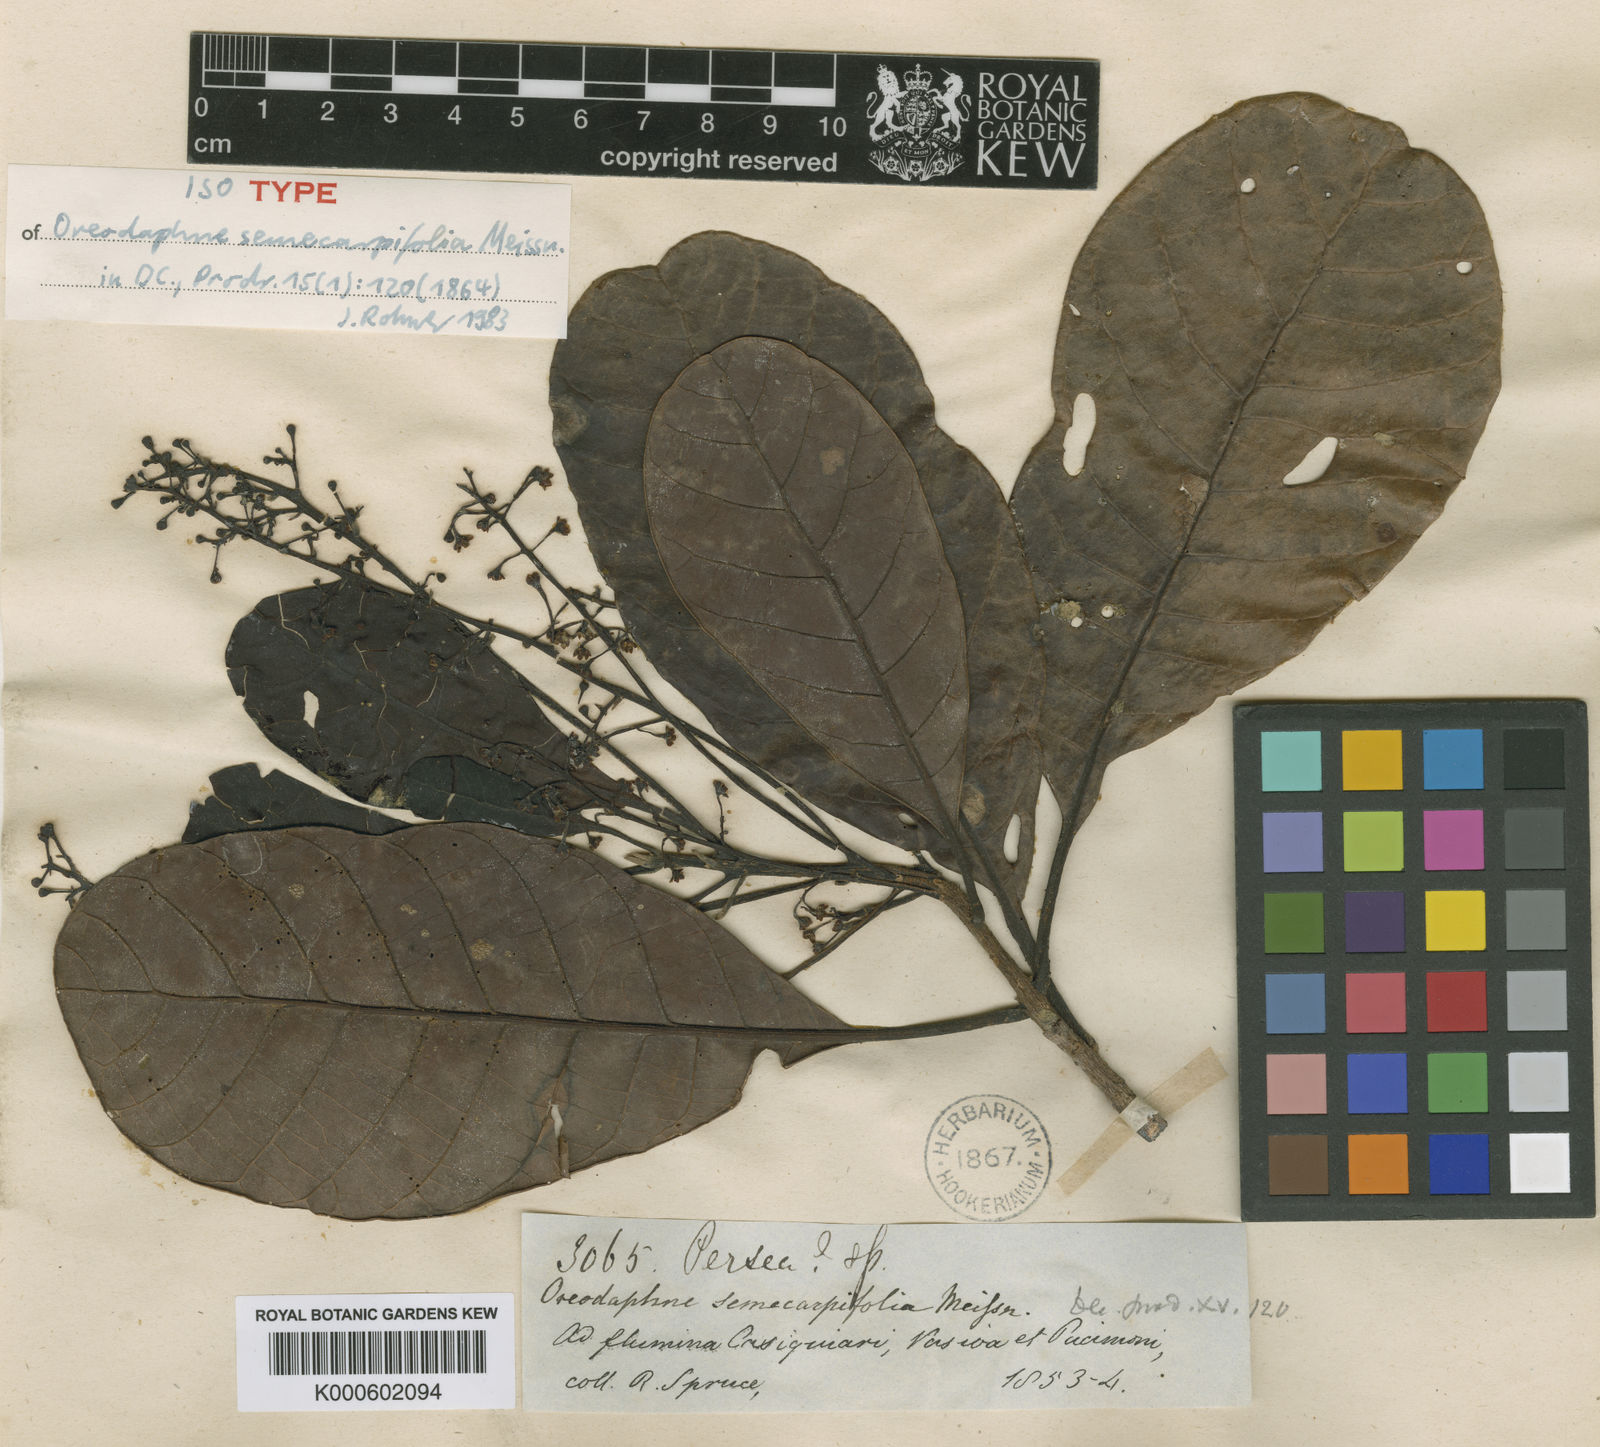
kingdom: Plantae
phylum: Tracheophyta
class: Magnoliopsida
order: Laurales
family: Lauraceae
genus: Persea
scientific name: Persea sprucei
